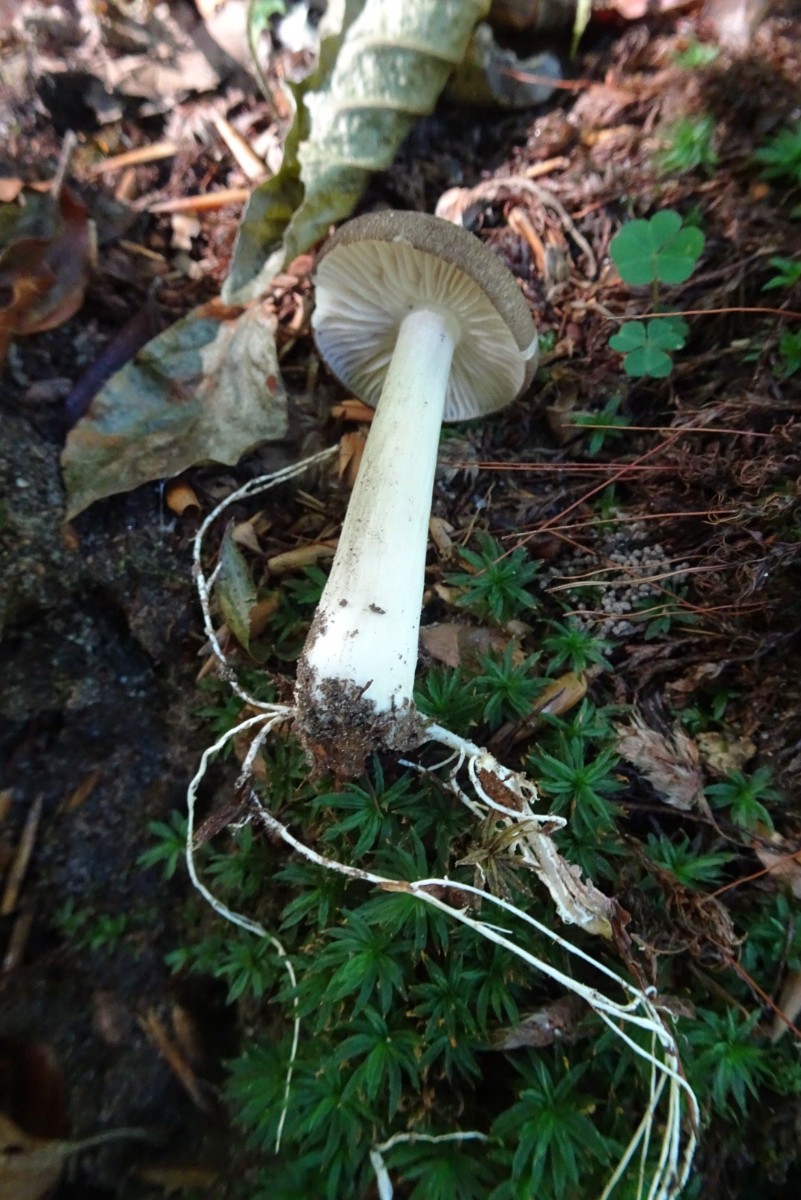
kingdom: Fungi
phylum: Basidiomycota
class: Agaricomycetes
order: Agaricales
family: Tricholomataceae
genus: Megacollybia
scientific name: Megacollybia platyphylla
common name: bredbladet væbnerhat
